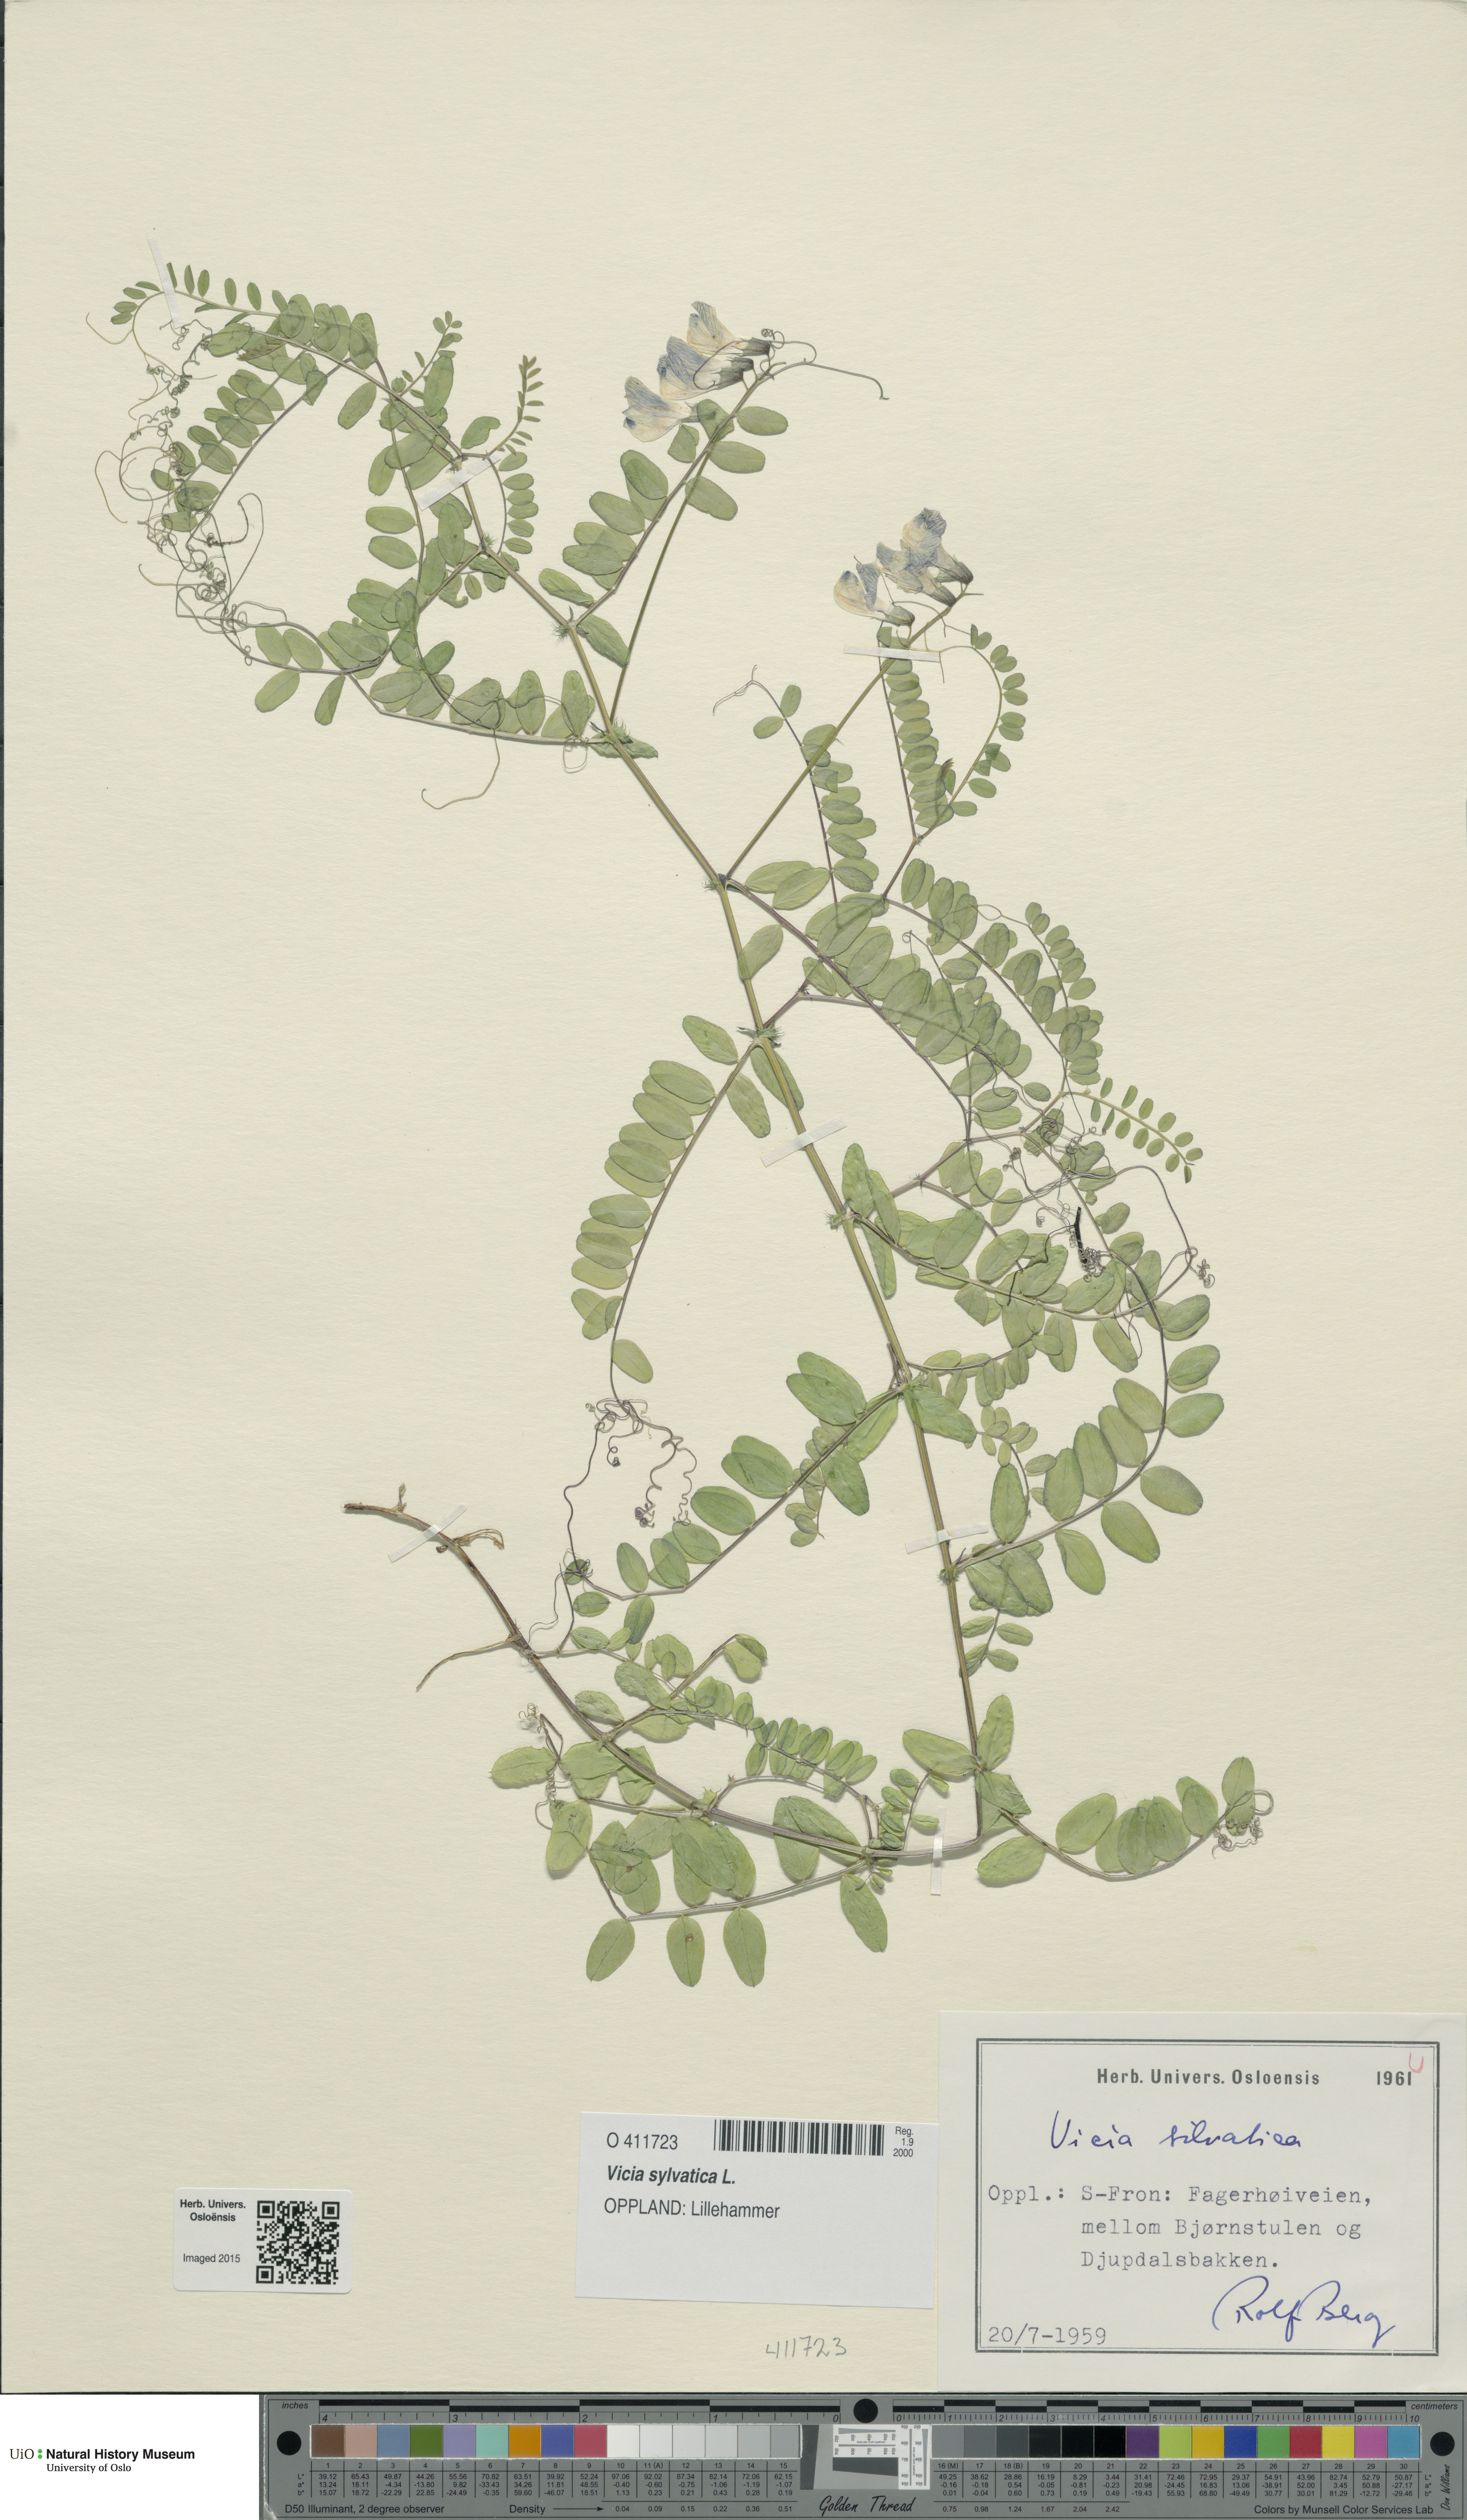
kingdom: Plantae
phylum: Tracheophyta
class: Magnoliopsida
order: Fabales
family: Fabaceae
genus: Vicia
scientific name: Vicia sylvatica
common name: Wood vetch
